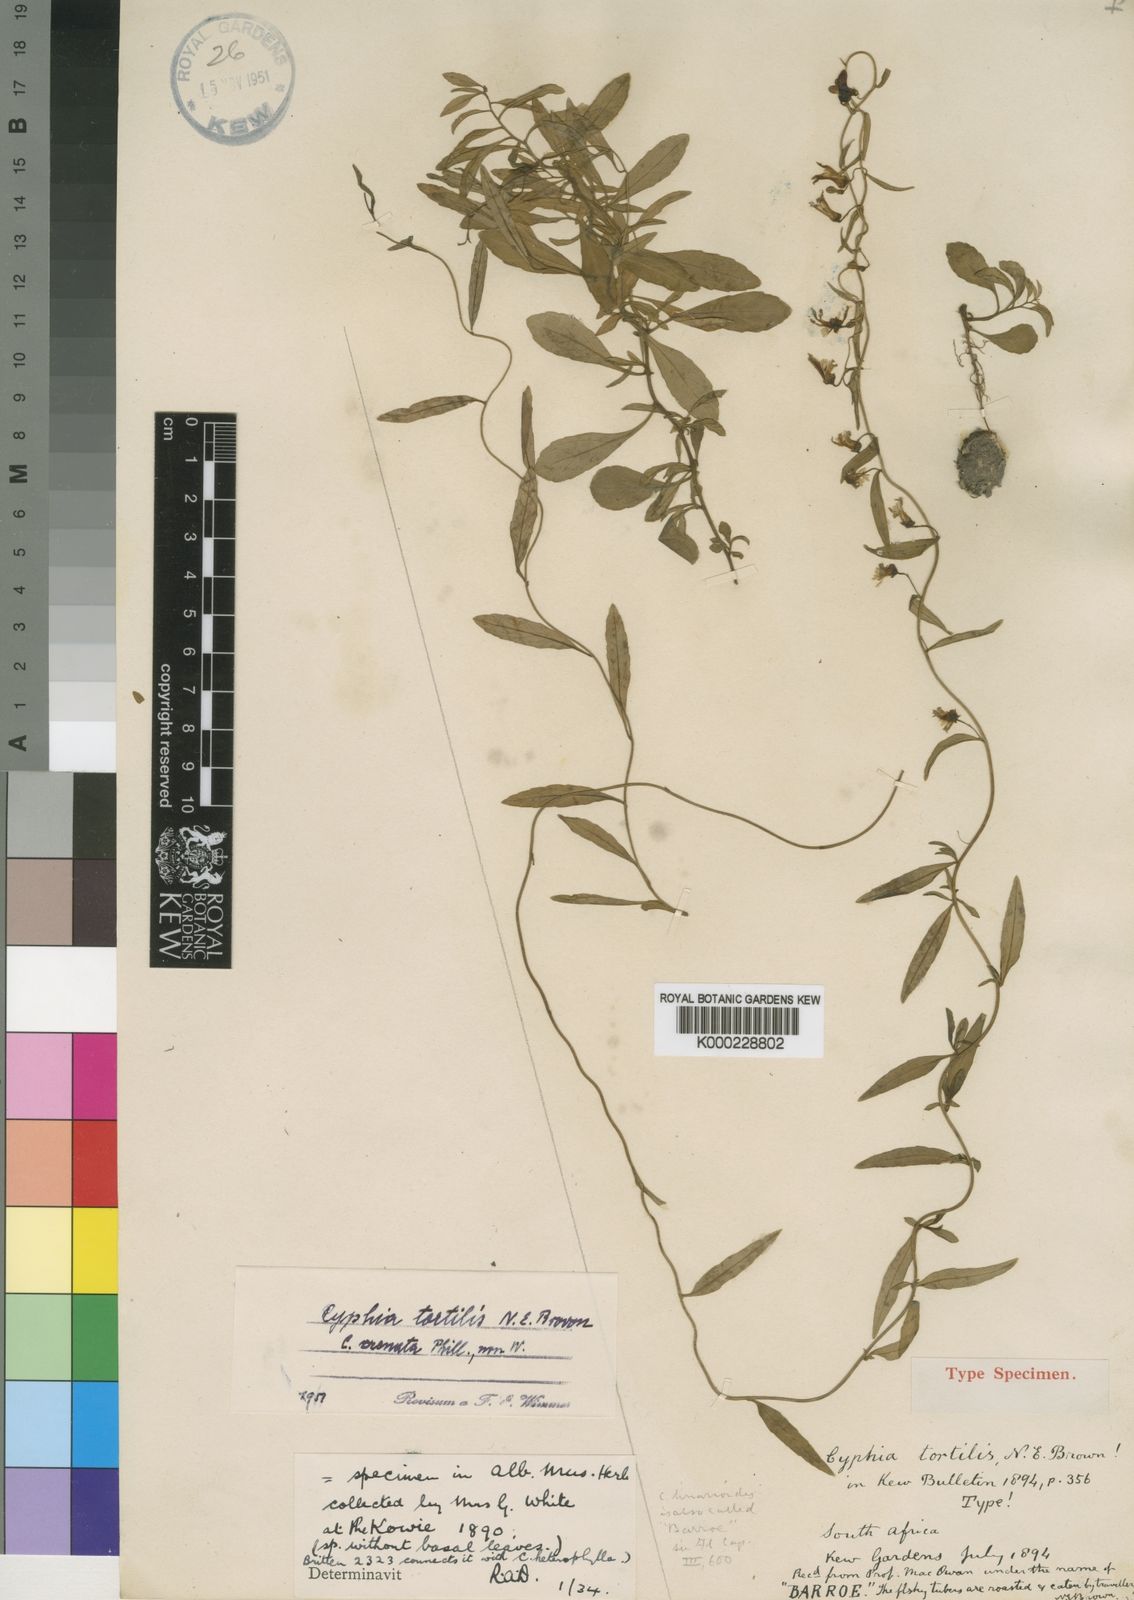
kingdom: Plantae
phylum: Tracheophyta
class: Magnoliopsida
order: Asterales
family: Campanulaceae
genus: Cyphia
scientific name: Cyphia heterophylla
